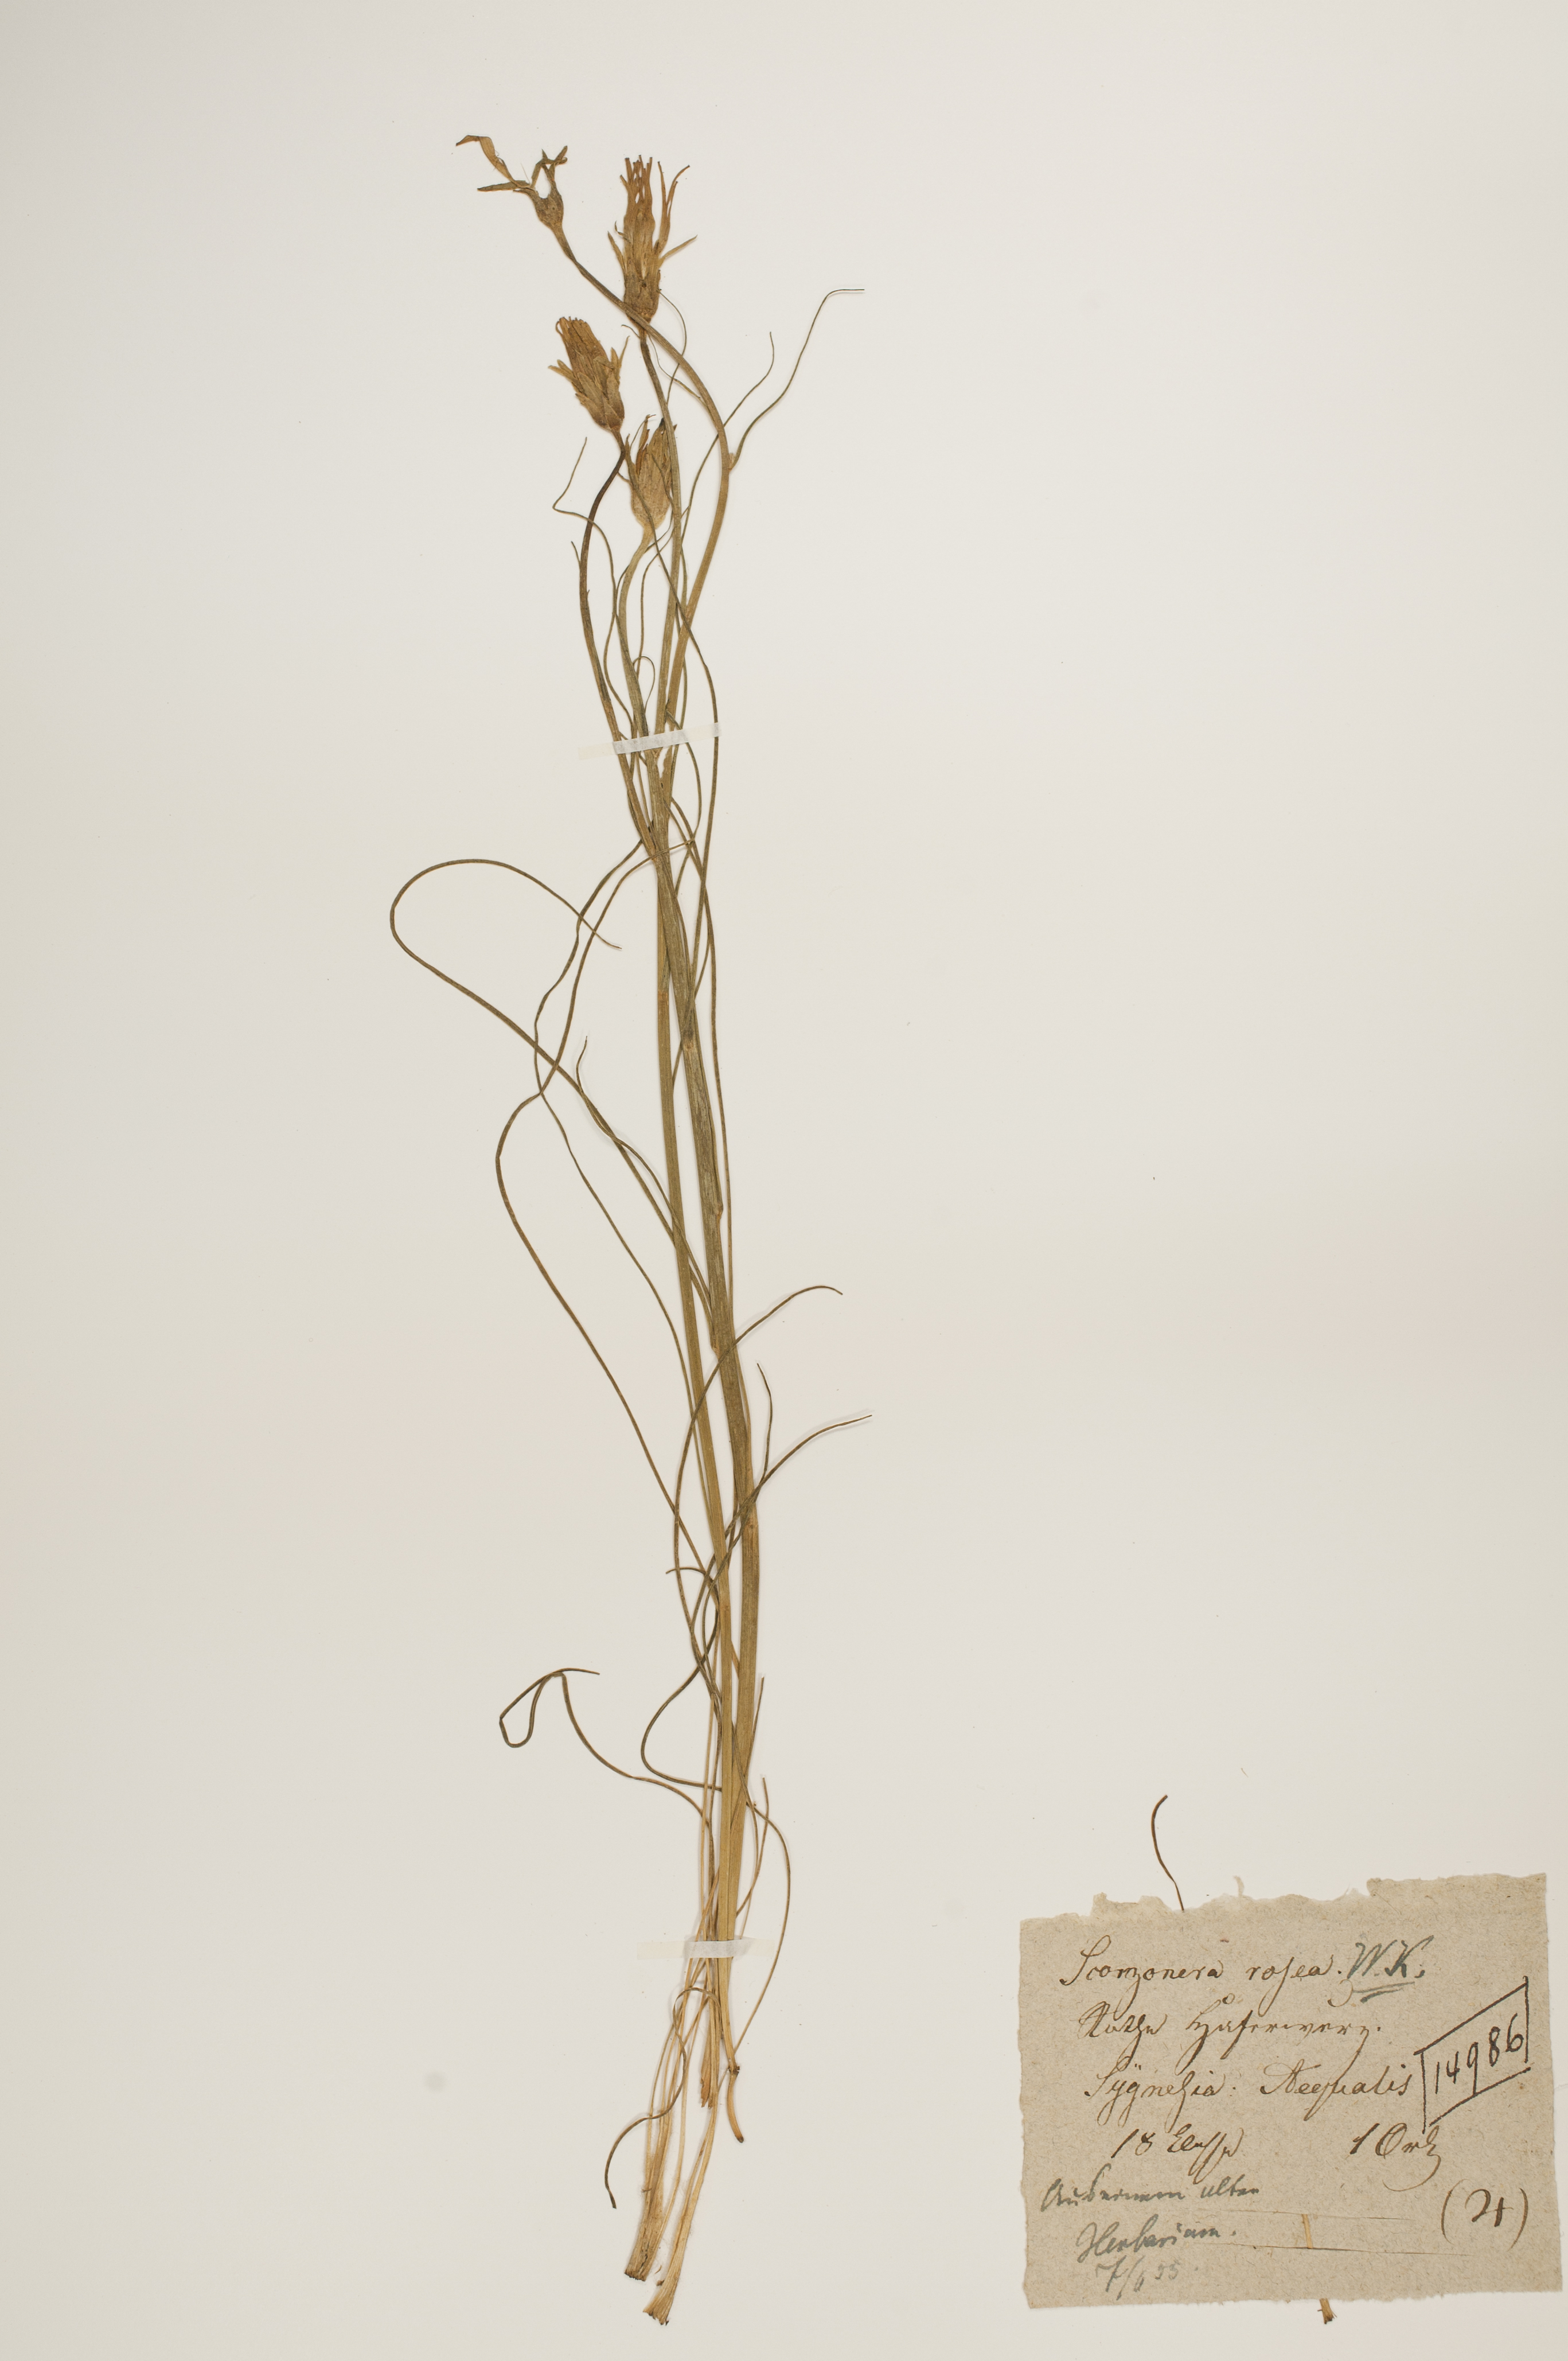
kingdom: Plantae
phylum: Tracheophyta
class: Magnoliopsida
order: Asterales
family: Asteraceae
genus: Scorzonera
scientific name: Scorzonera rosea
